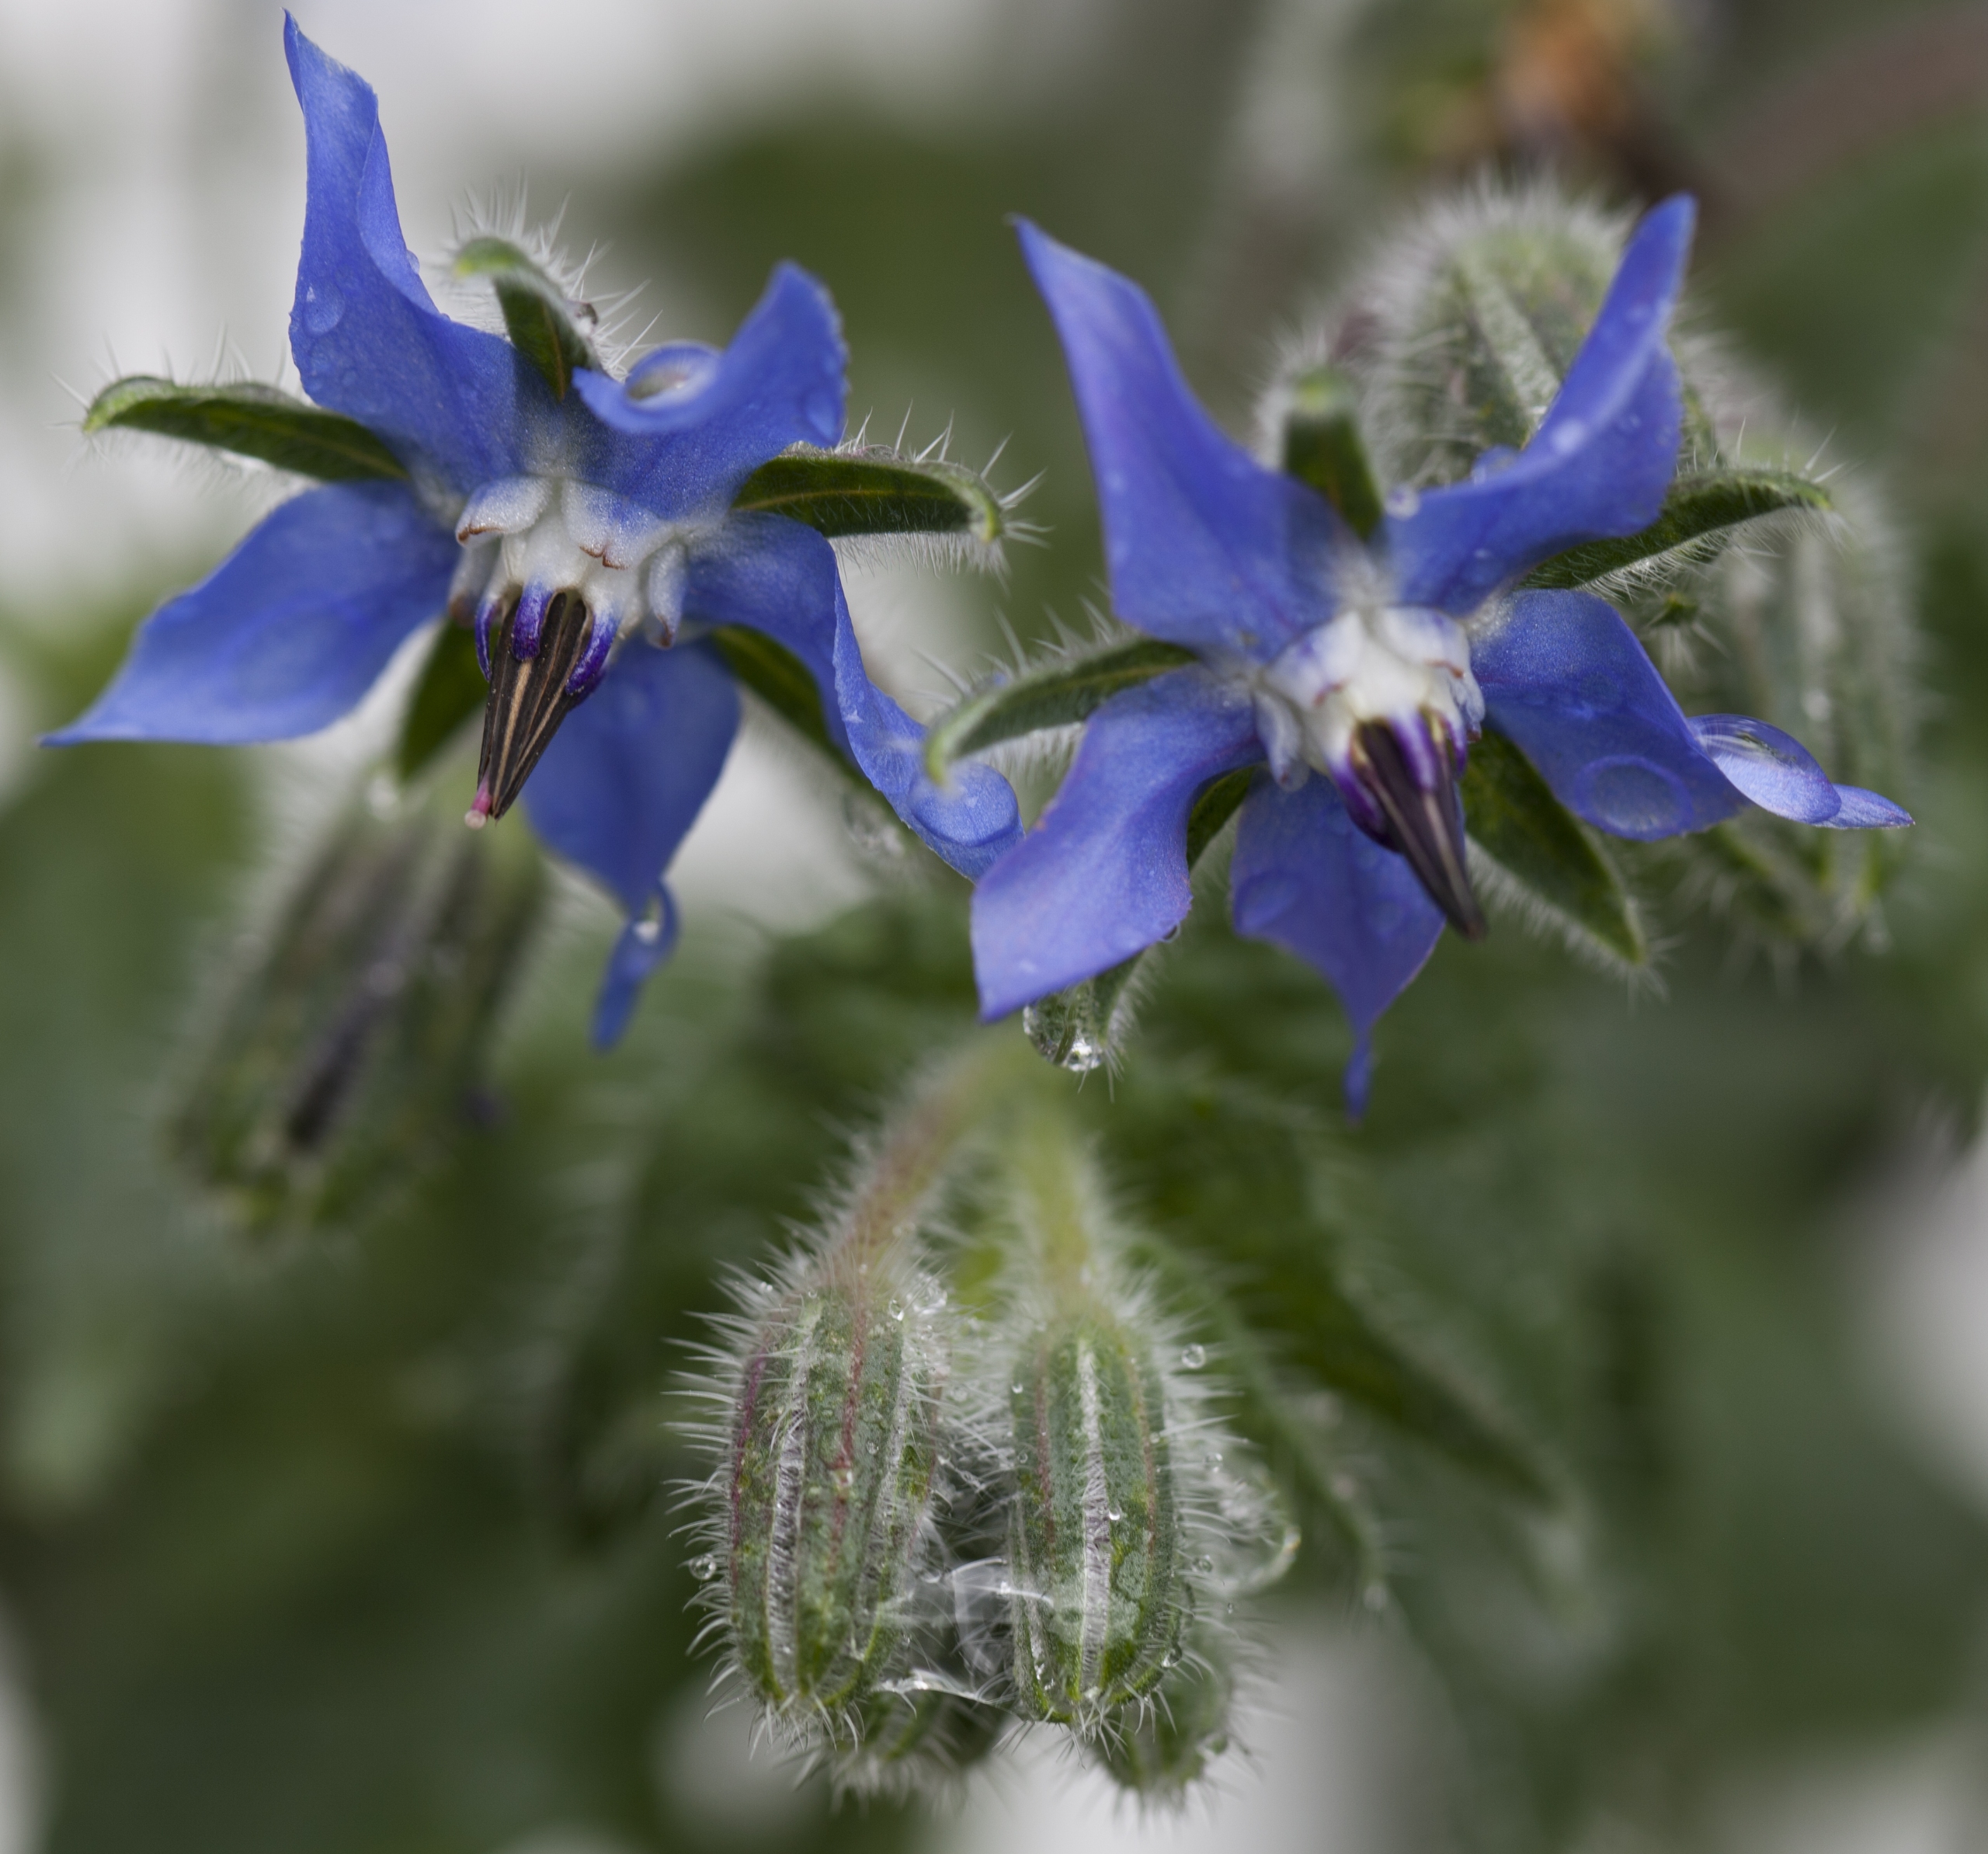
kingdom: Plantae
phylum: Tracheophyta
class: Magnoliopsida
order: Boraginales
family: Boraginaceae
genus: Borago
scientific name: Borago officinalis
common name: Hjulkrone
